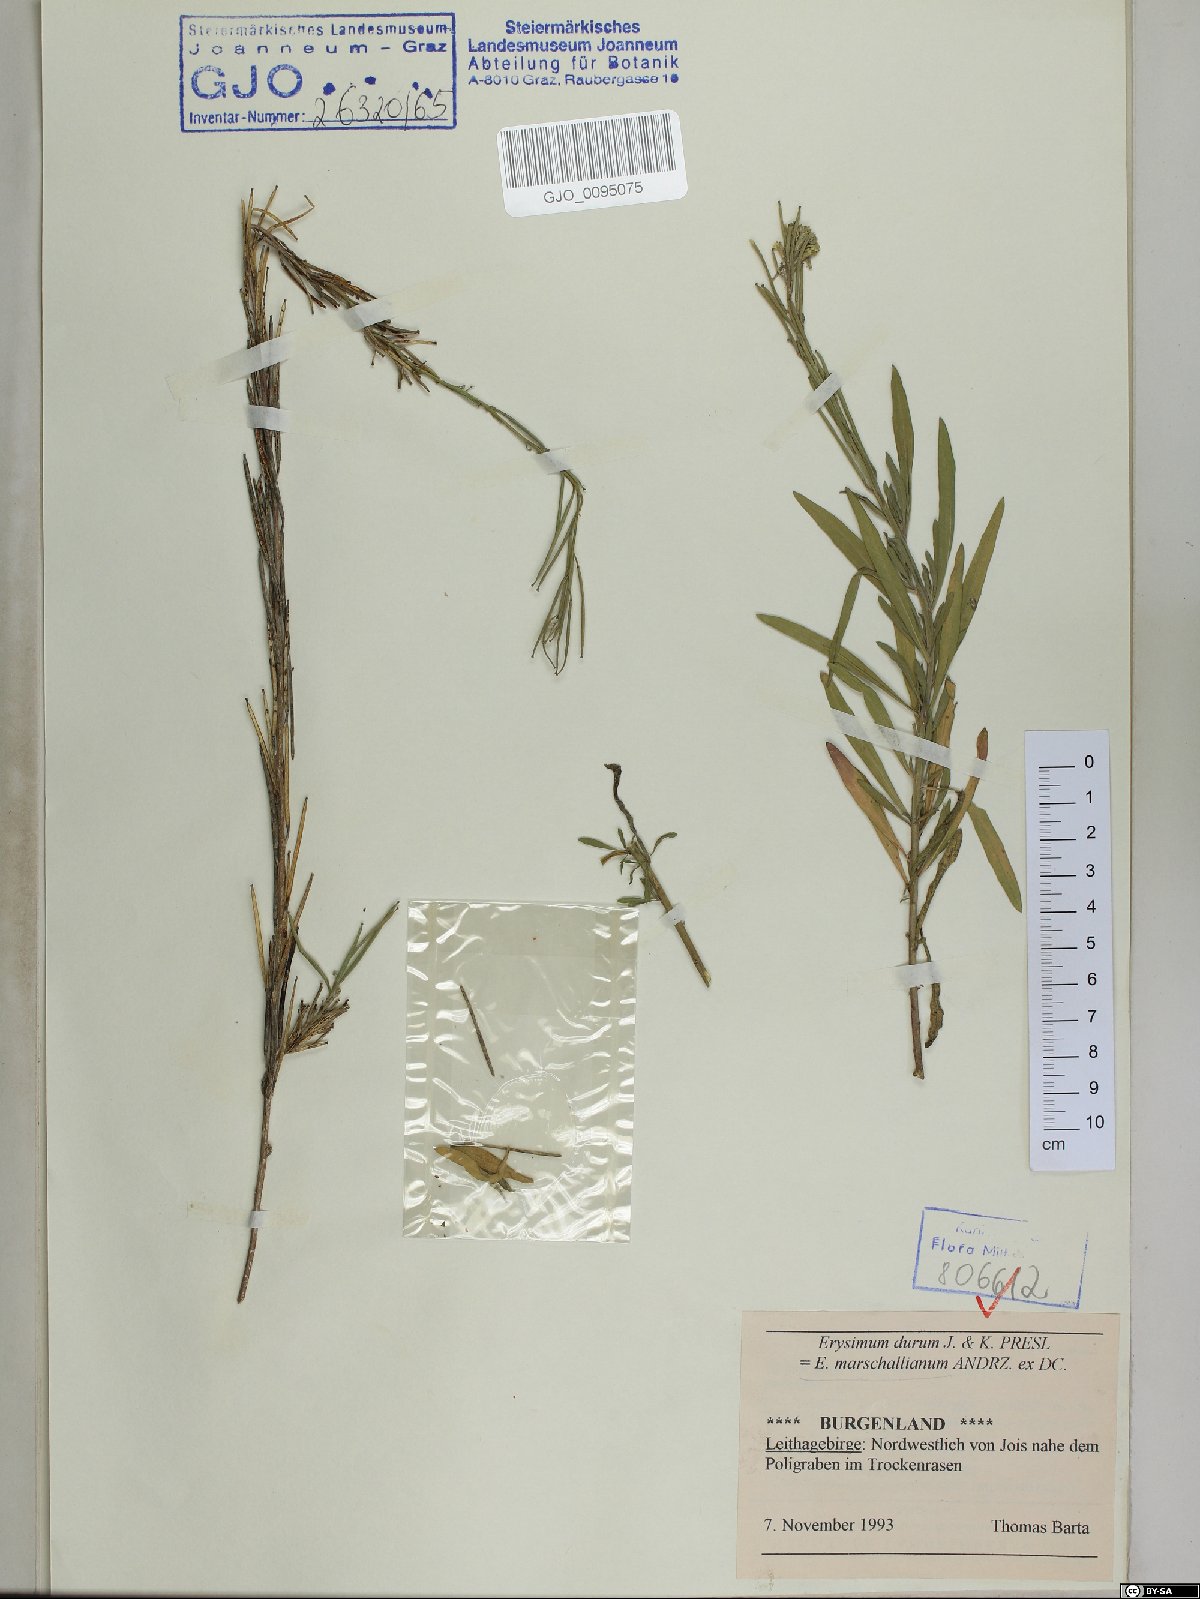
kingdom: Plantae
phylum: Tracheophyta
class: Magnoliopsida
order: Brassicales
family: Brassicaceae
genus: Erysimum
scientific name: Erysimum marschallianum
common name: Hard wallflower
